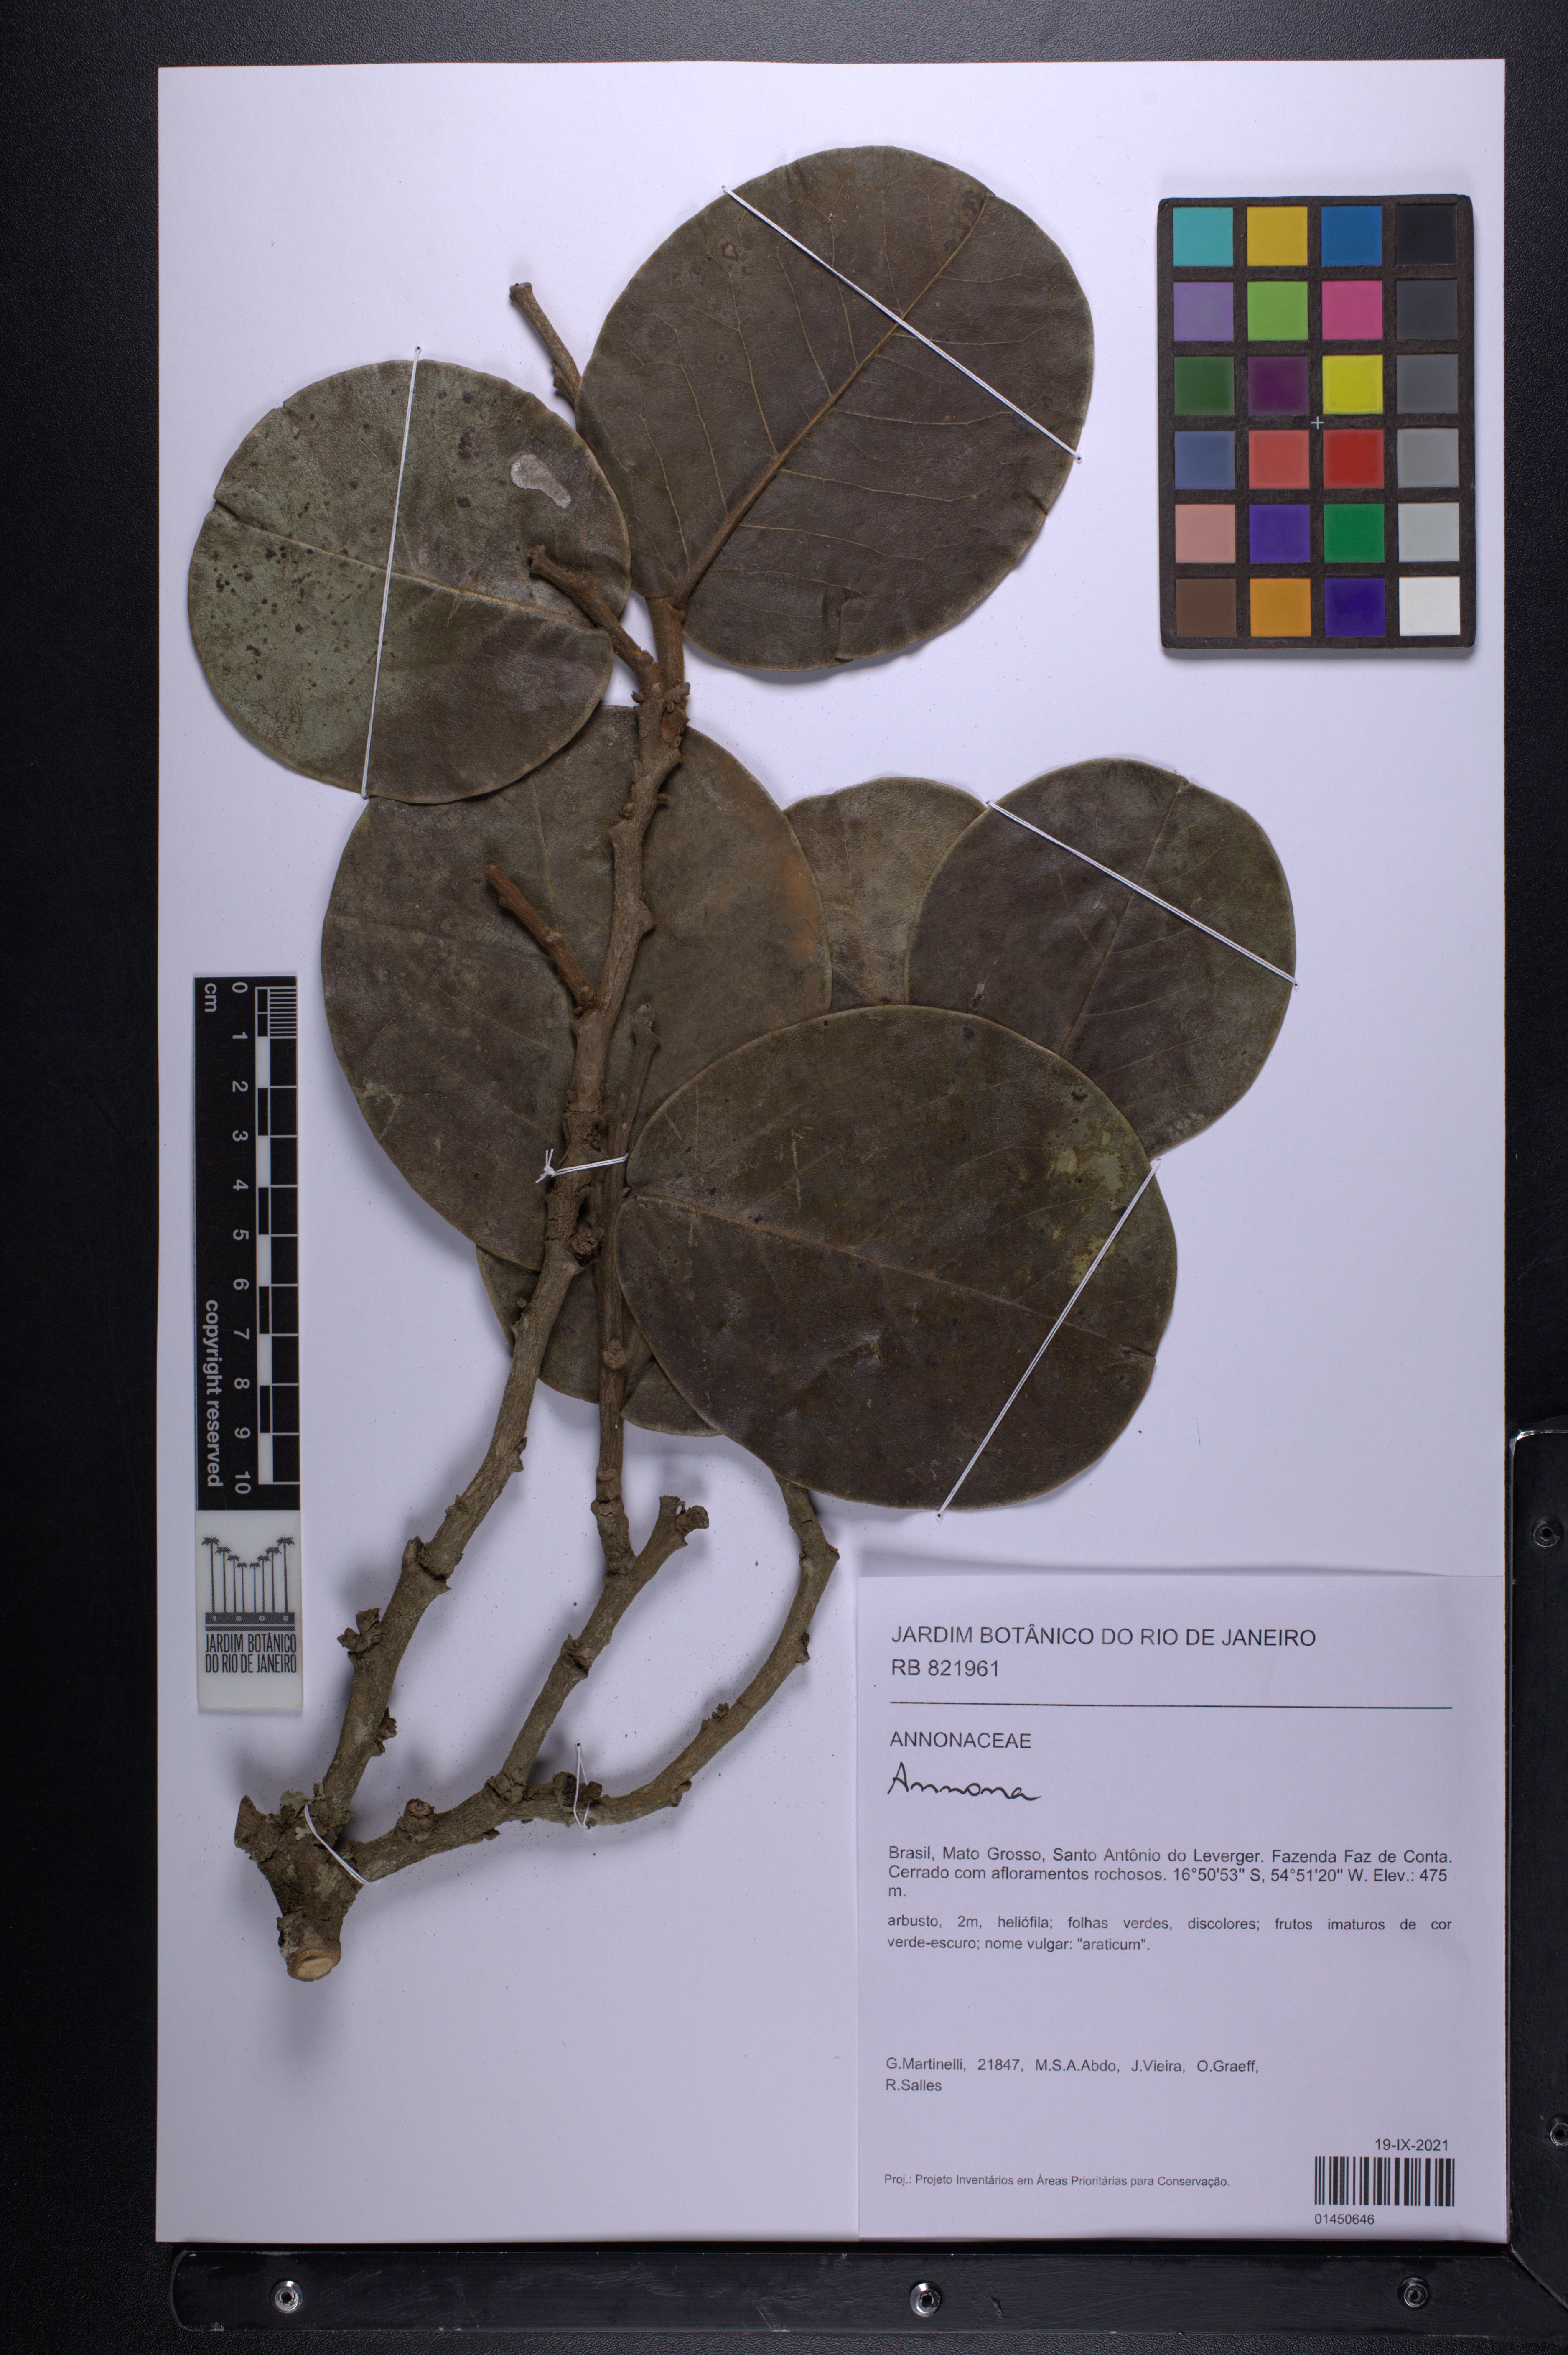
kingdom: Plantae
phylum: Tracheophyta
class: Magnoliopsida
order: Magnoliales
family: Annonaceae
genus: Annona
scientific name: Annona
